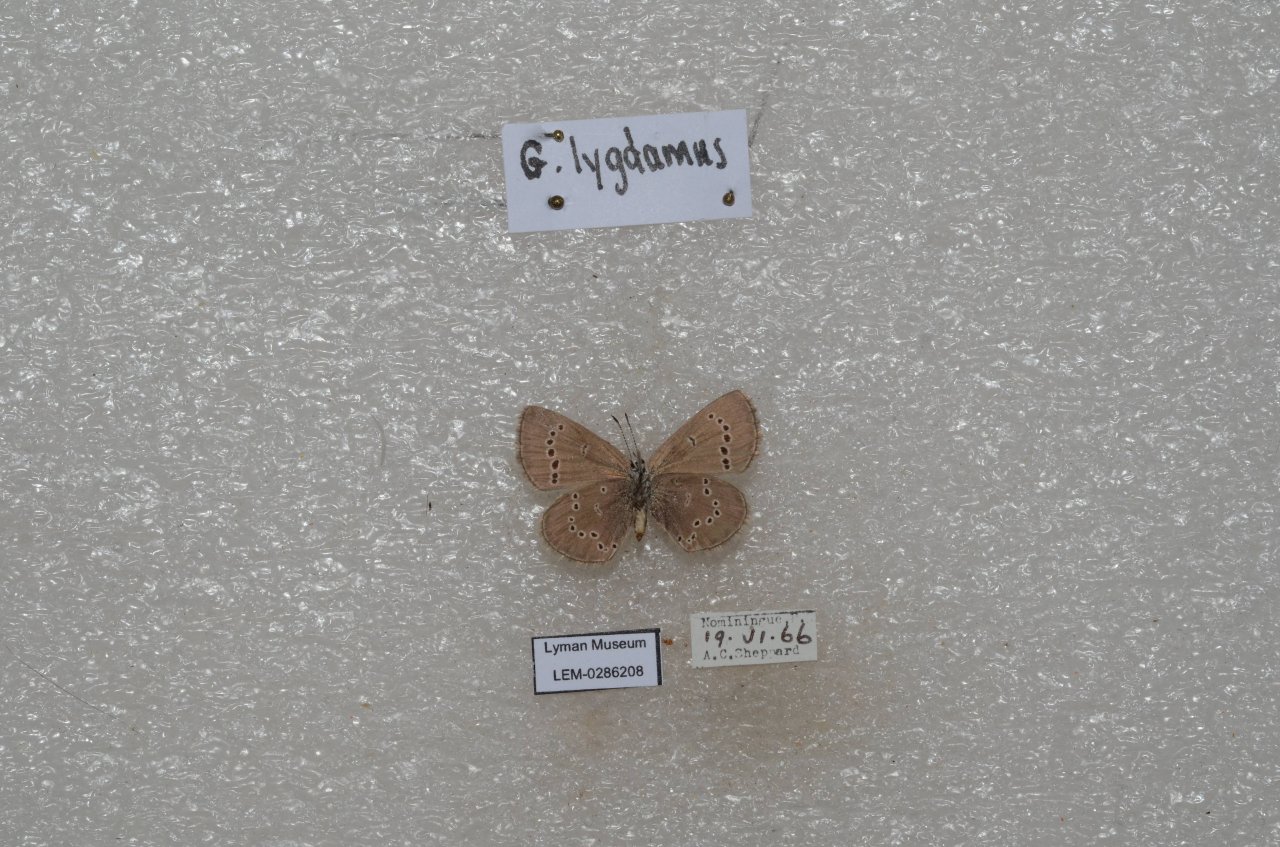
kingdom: Animalia
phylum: Arthropoda
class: Insecta
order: Lepidoptera
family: Lycaenidae
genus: Glaucopsyche
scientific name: Glaucopsyche lygdamus
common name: Silvery Blue
